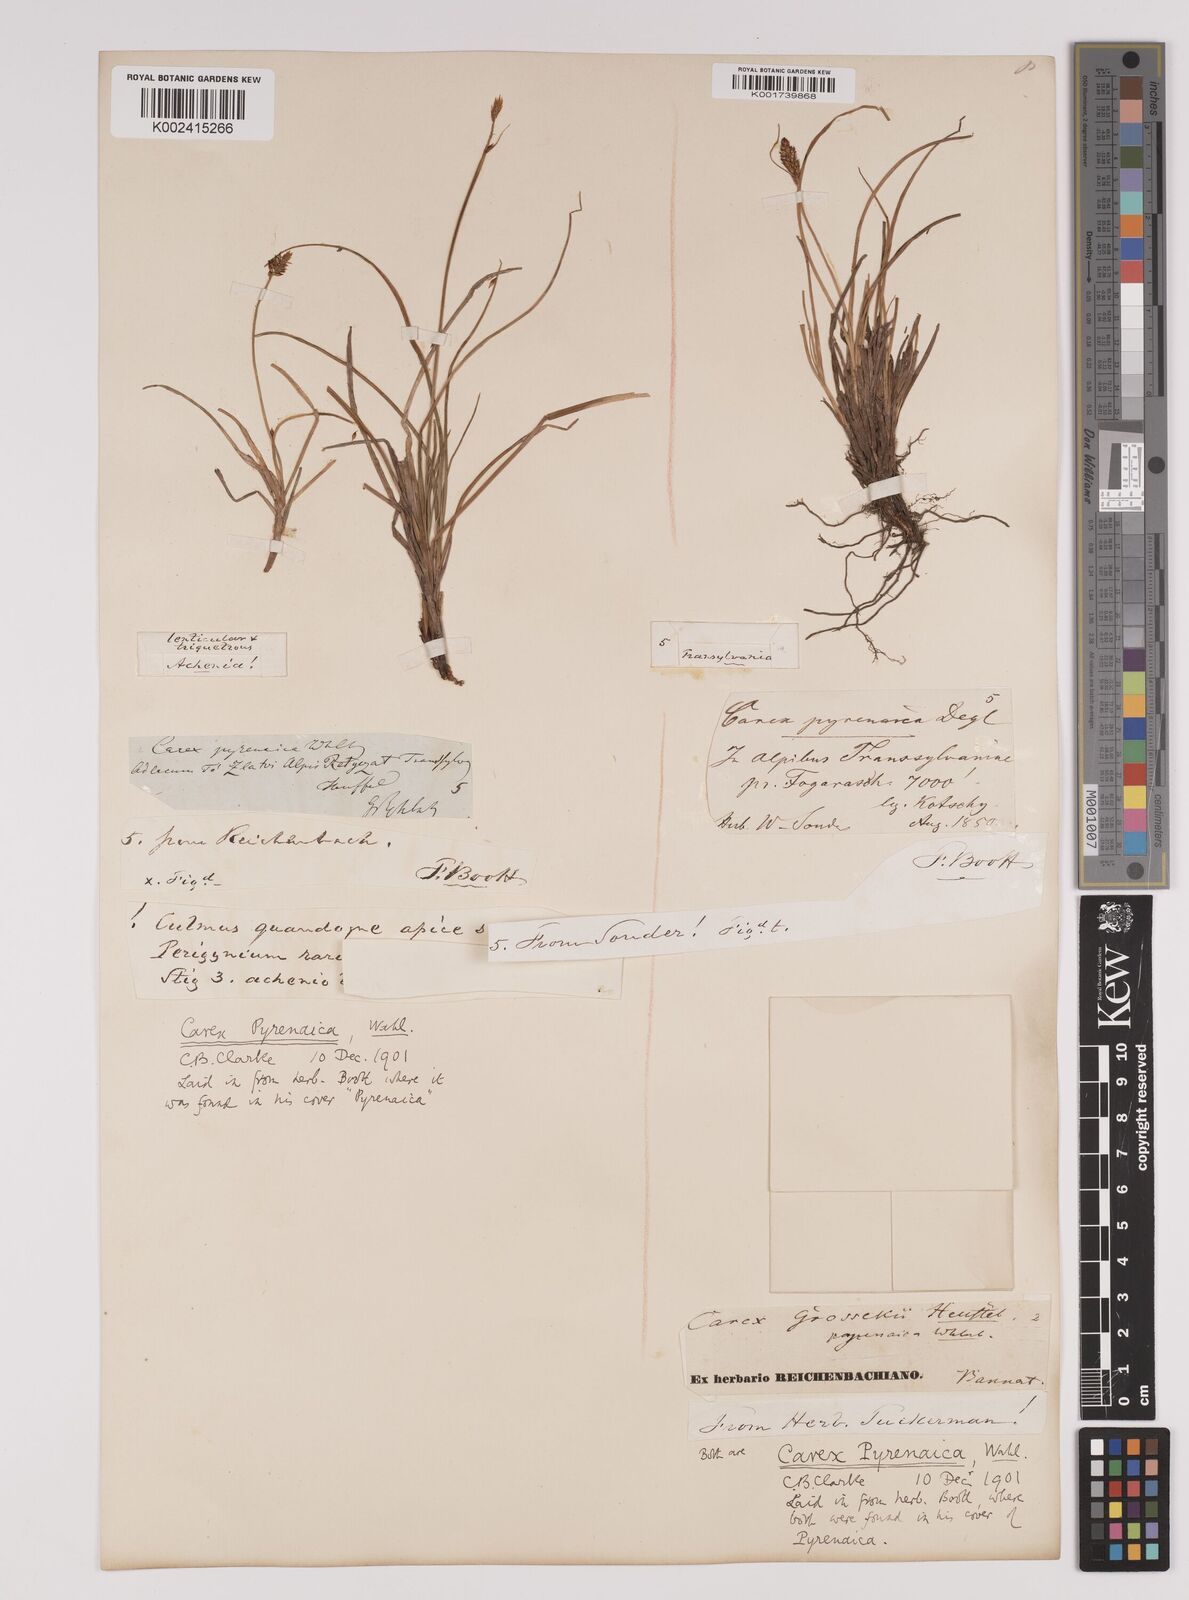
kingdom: Plantae
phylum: Tracheophyta
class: Liliopsida
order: Poales
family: Cyperaceae
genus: Carex
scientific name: Carex pyrenaica
